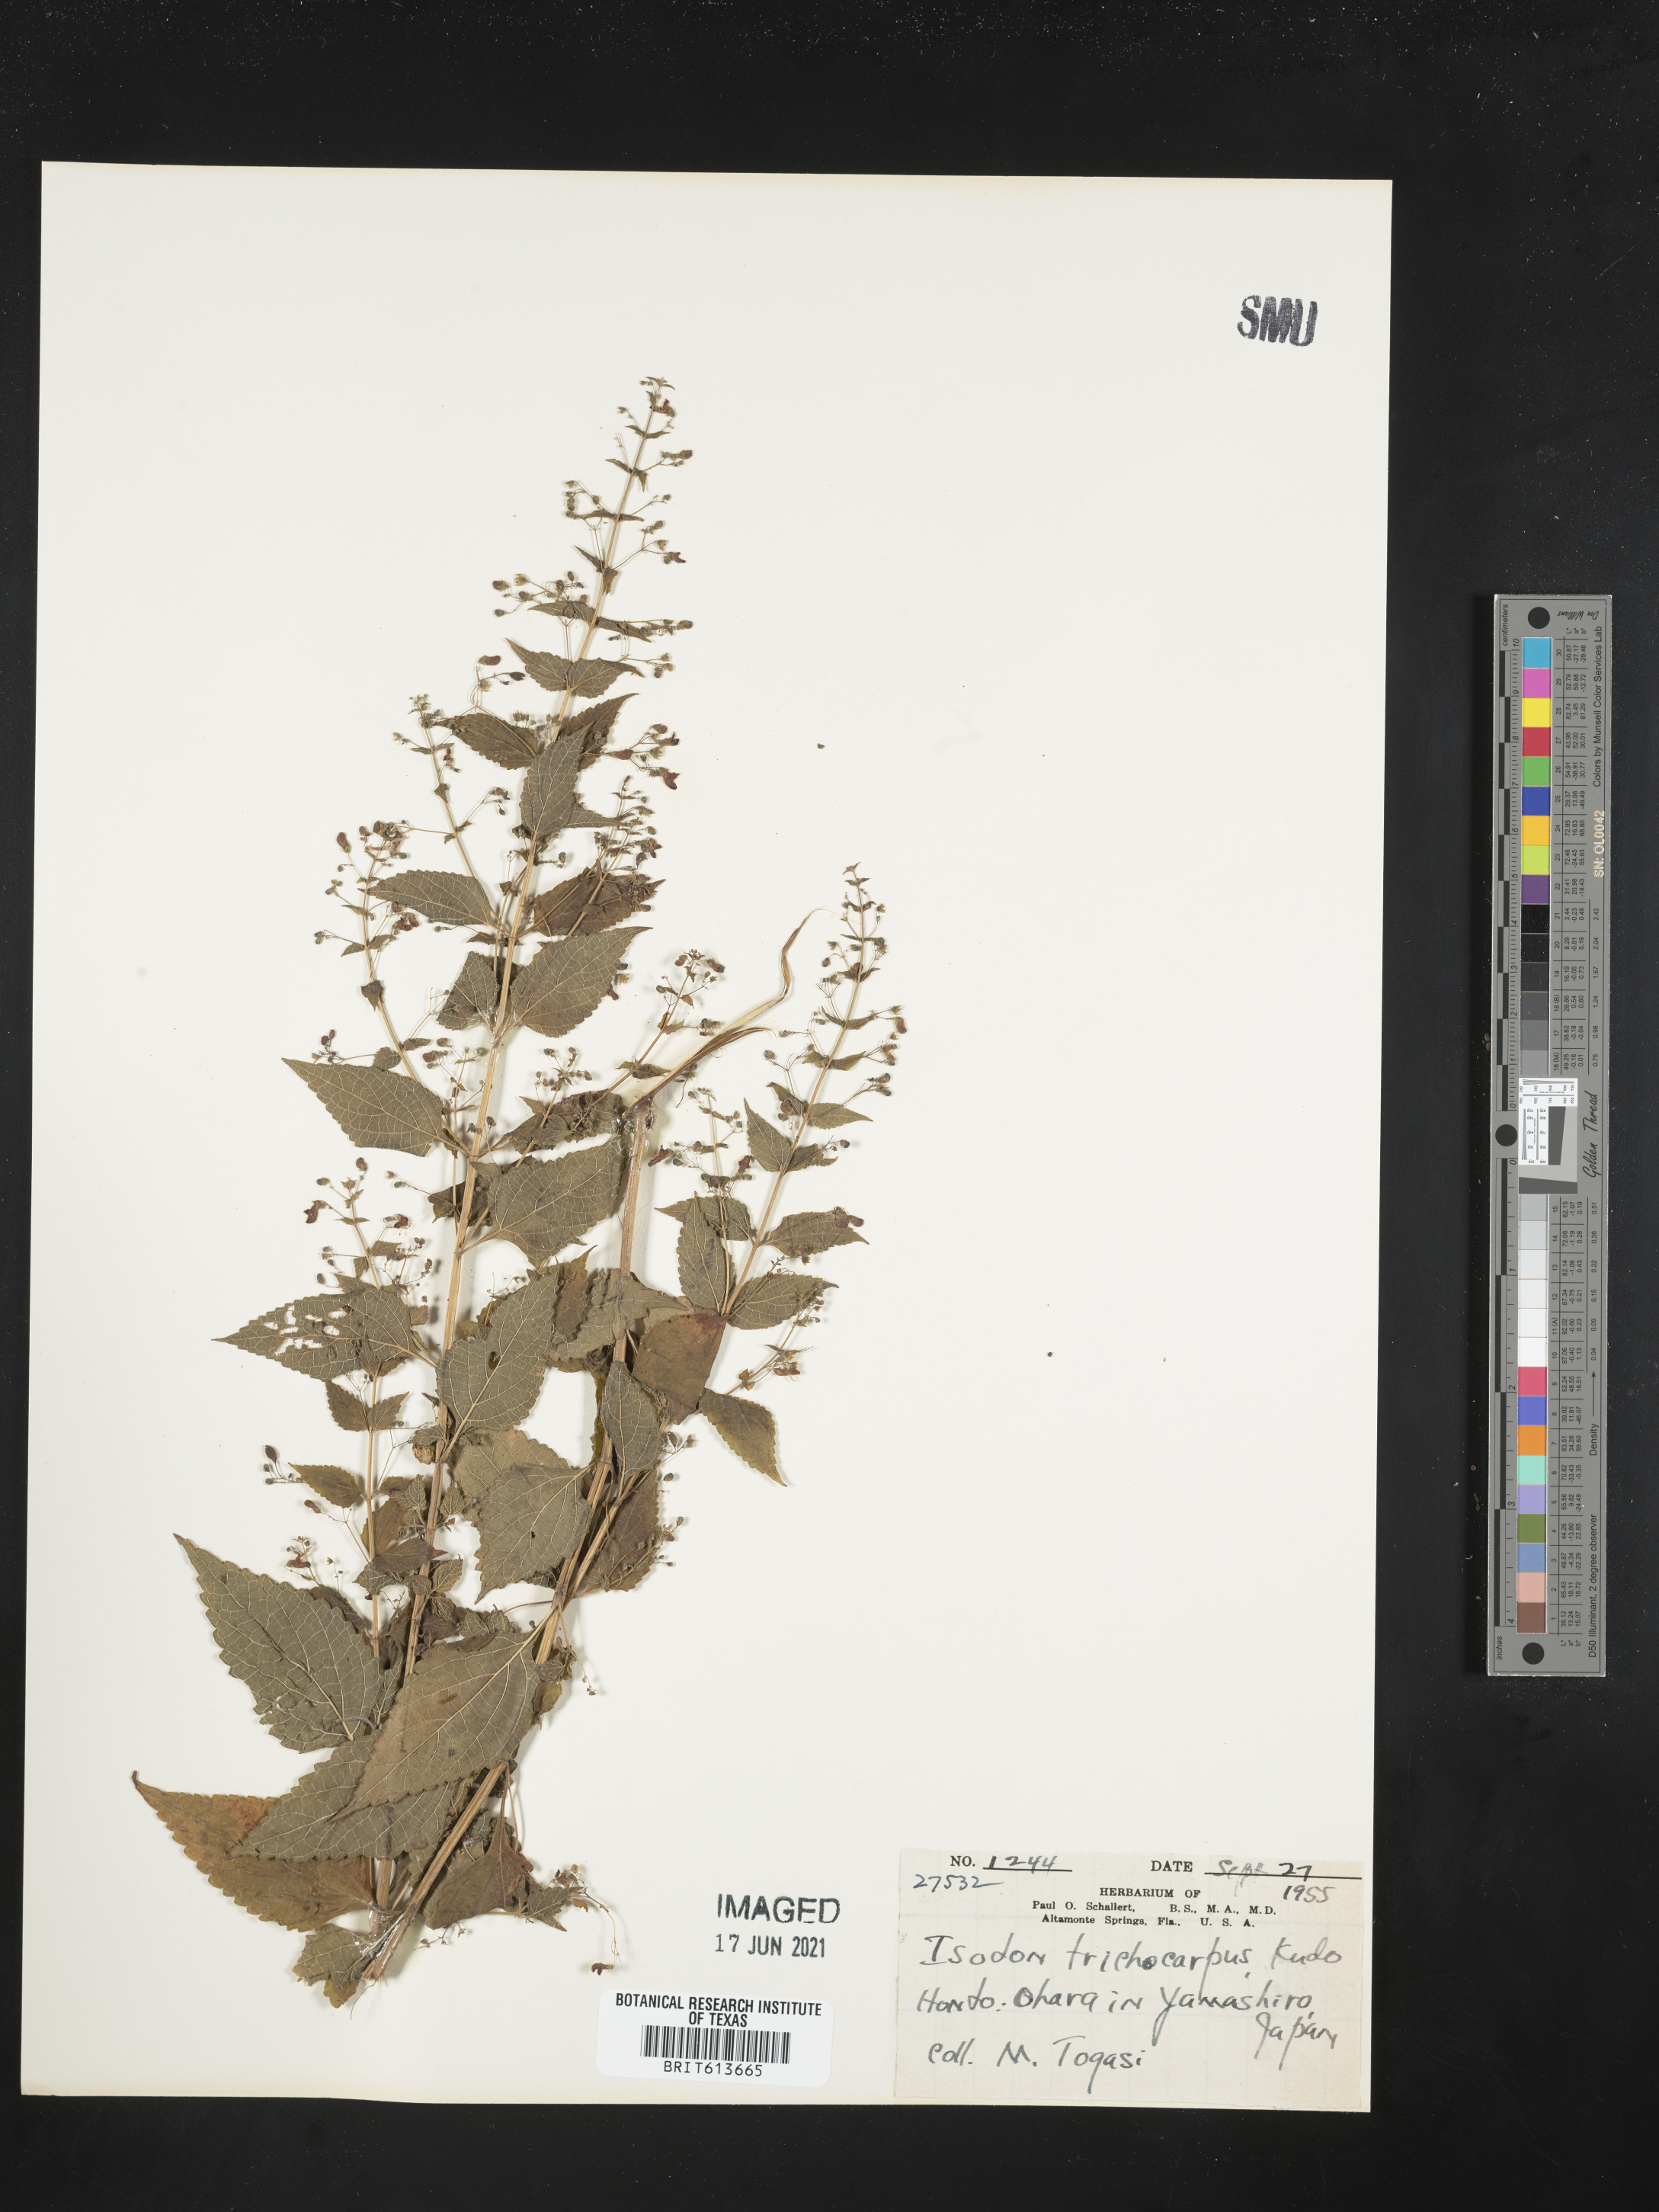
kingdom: Plantae
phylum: Tracheophyta
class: Magnoliopsida
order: Lamiales
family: Lamiaceae
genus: Isodon
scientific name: Isodon trichocarpus
